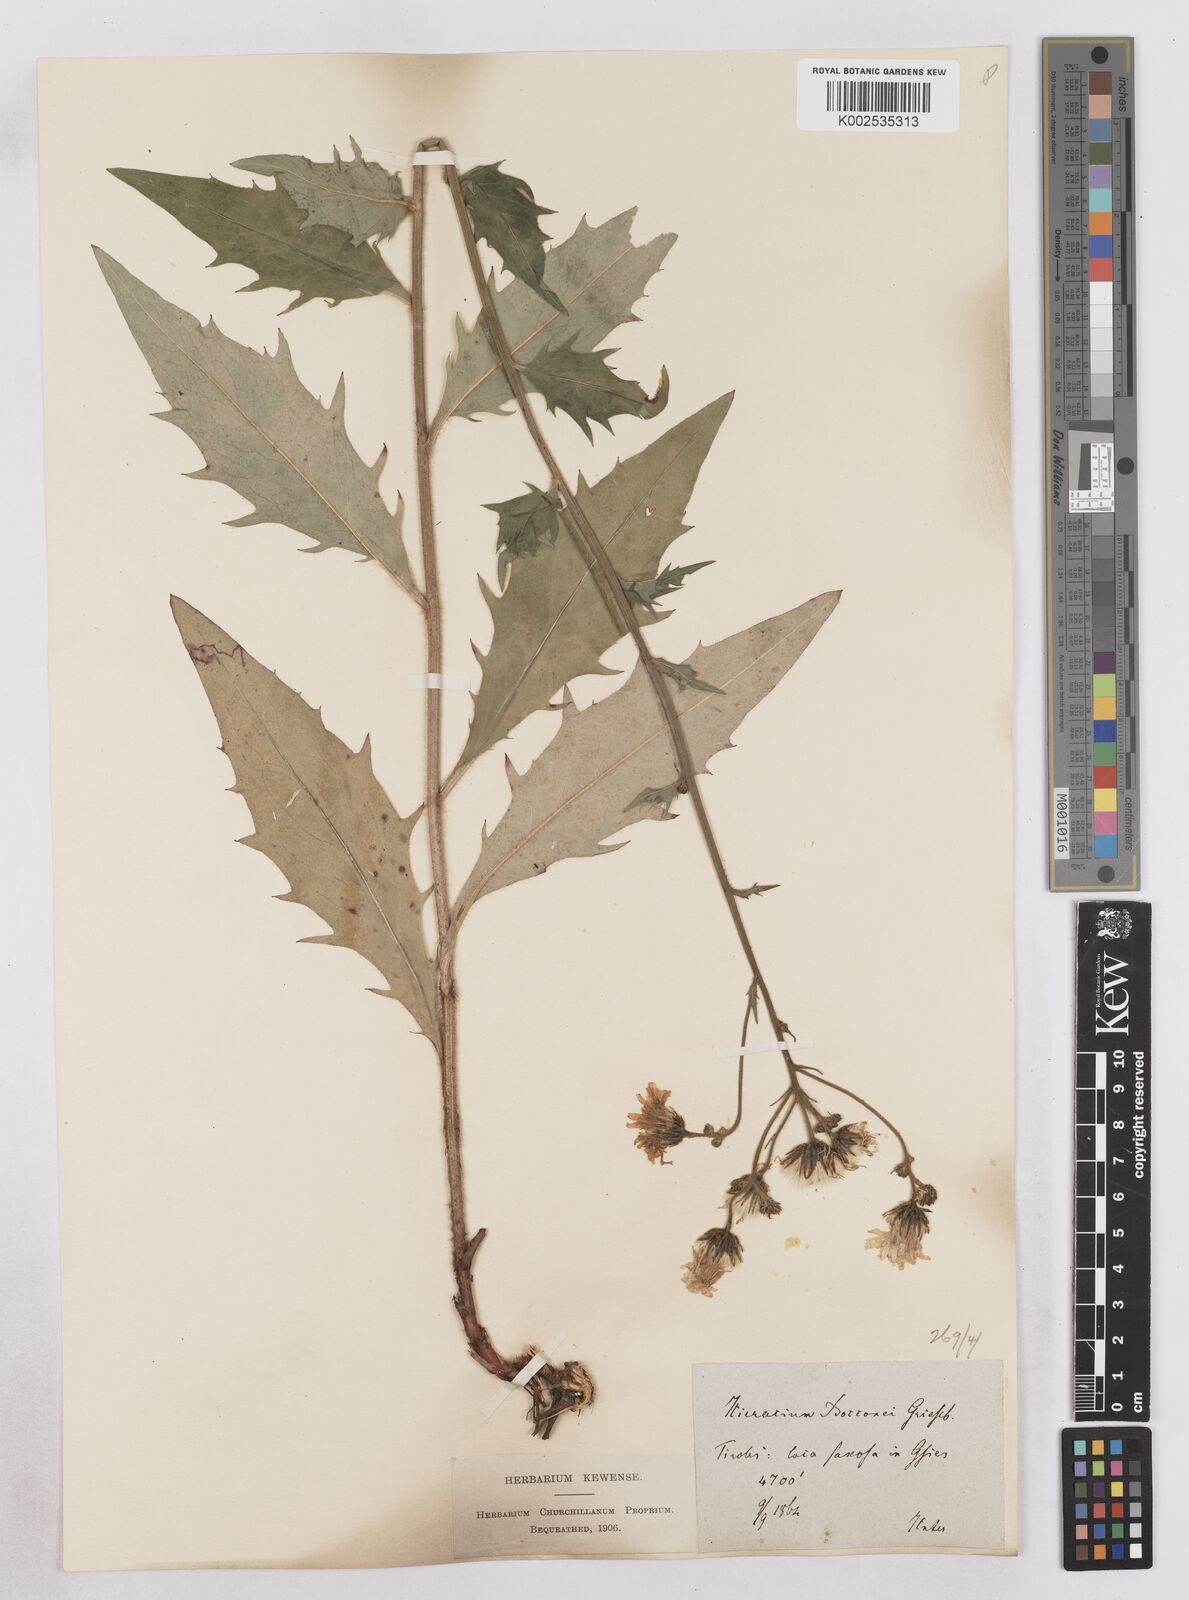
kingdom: Plantae
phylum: Tracheophyta
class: Magnoliopsida
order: Asterales
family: Asteraceae
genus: Hieracium
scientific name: Hieracium simia
